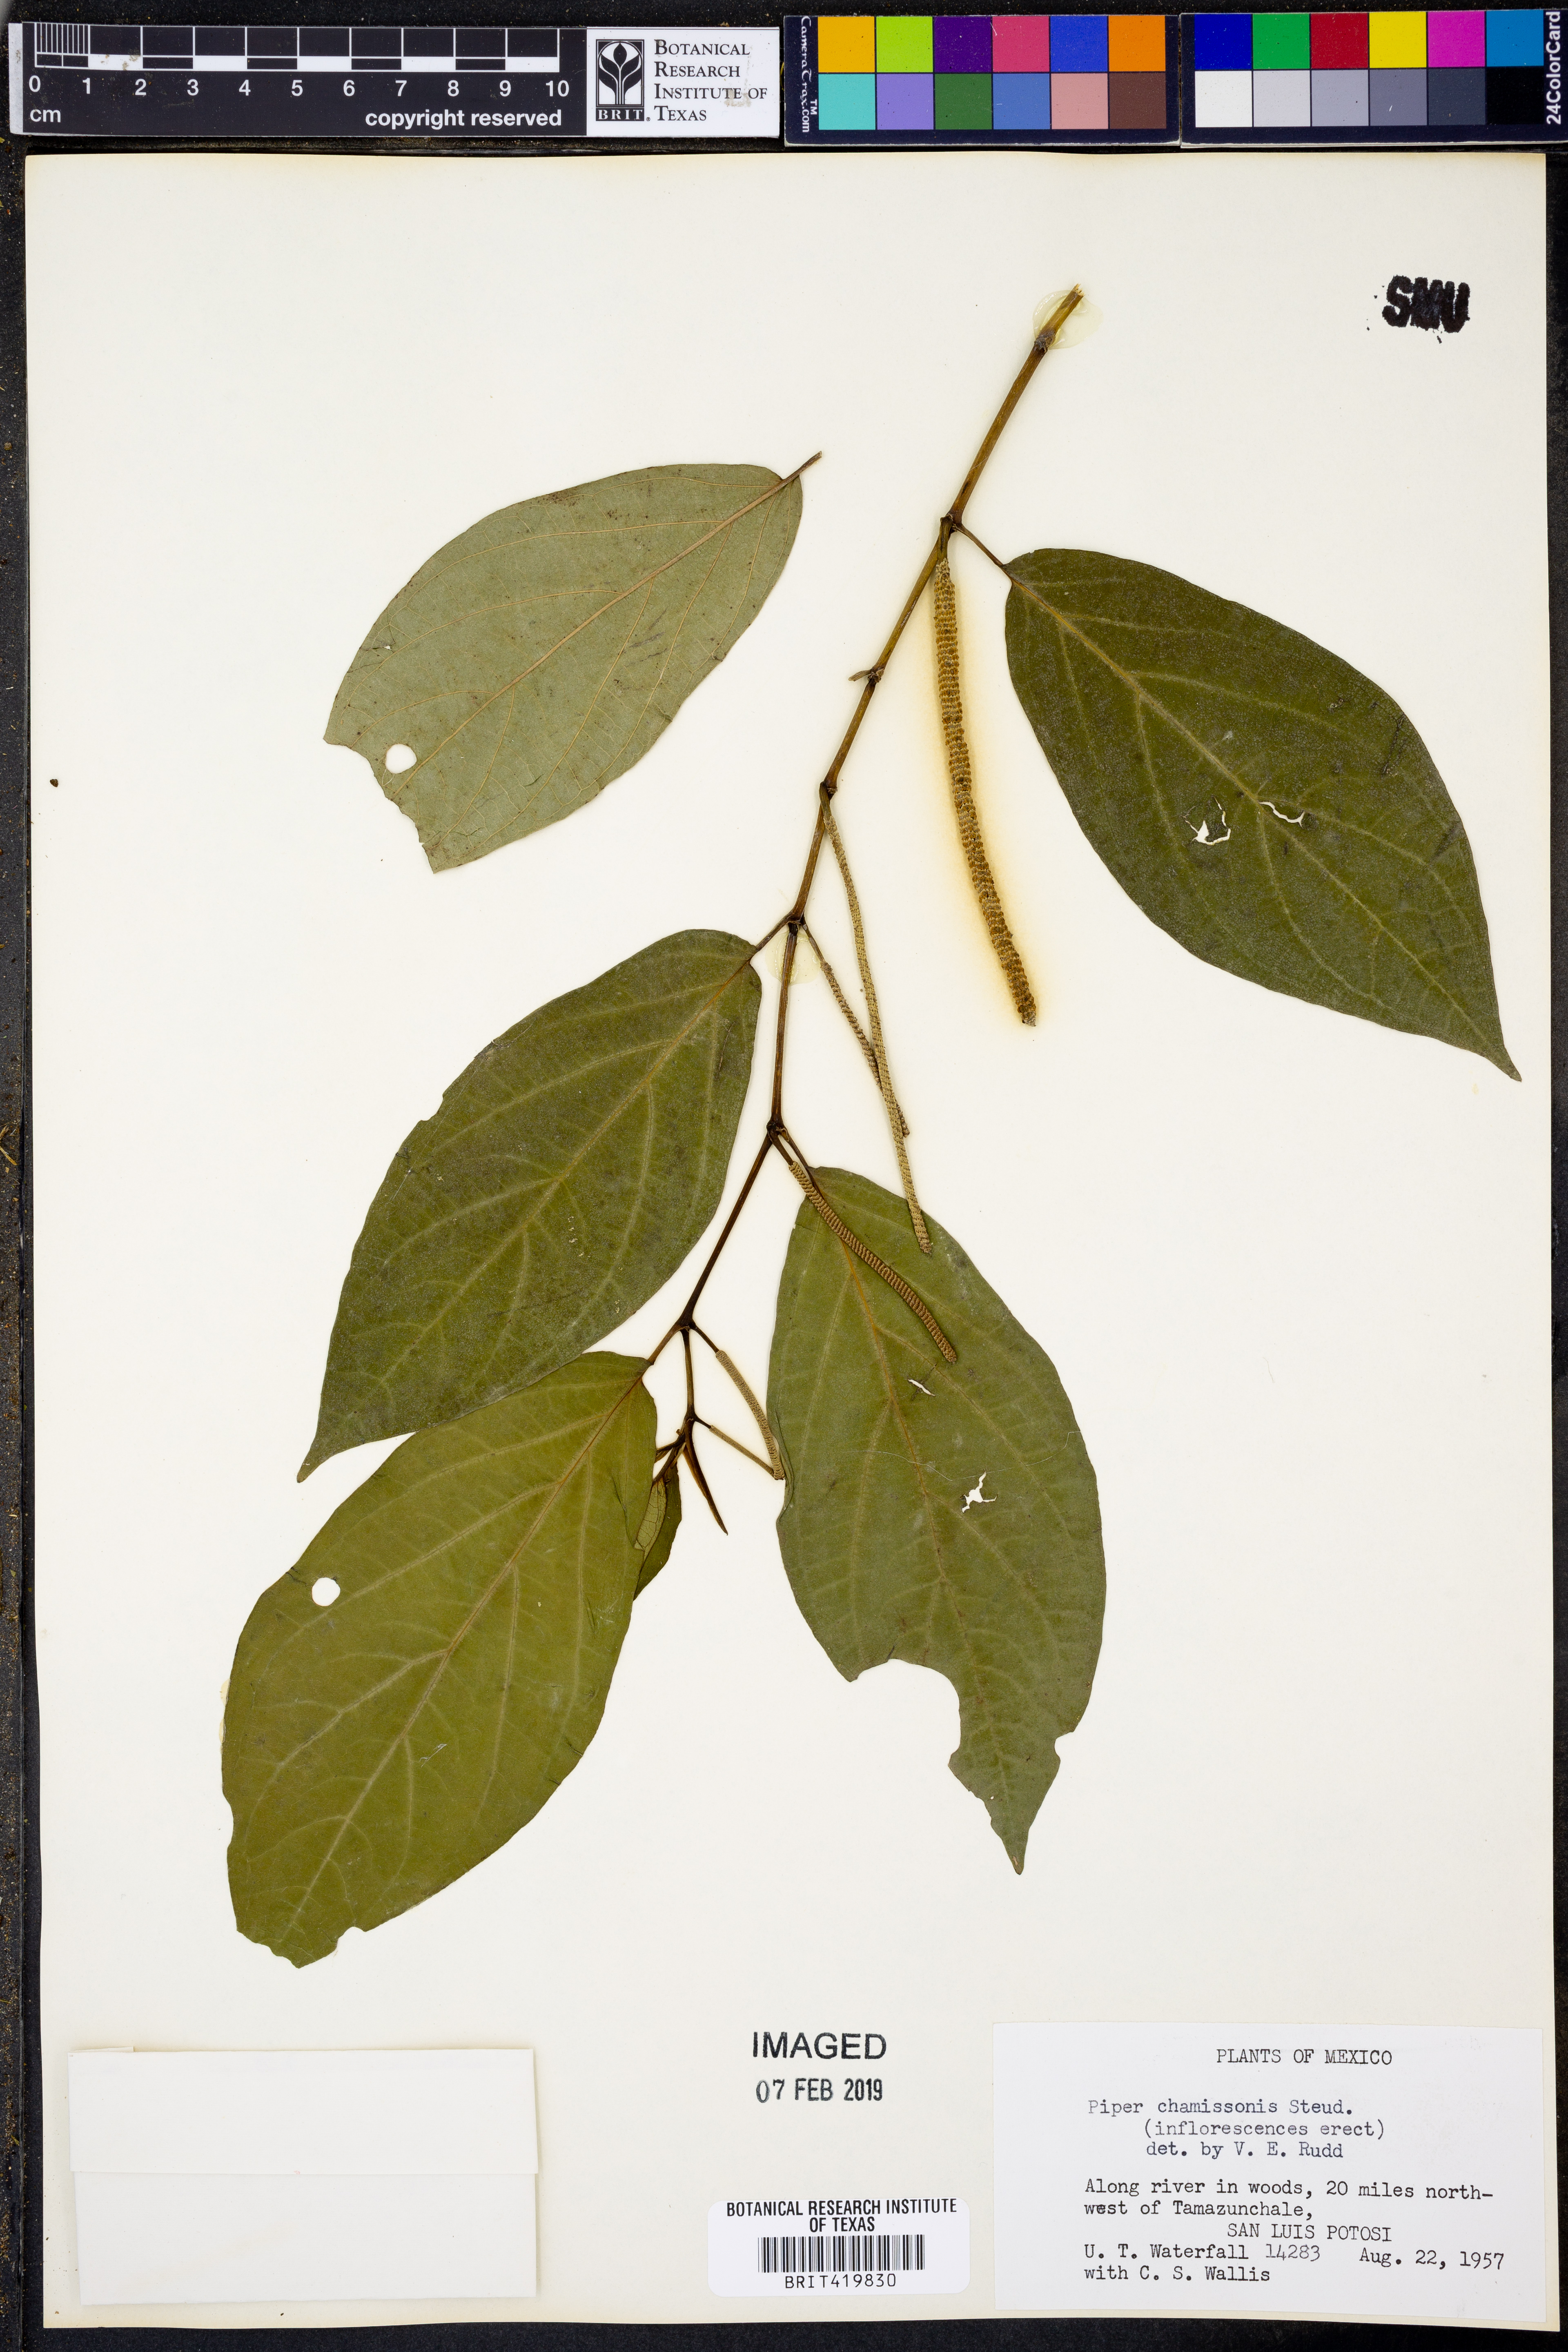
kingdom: Plantae
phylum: Tracheophyta
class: Magnoliopsida
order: Piperales
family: Piperaceae
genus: Piper
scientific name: Piper chamissonis
